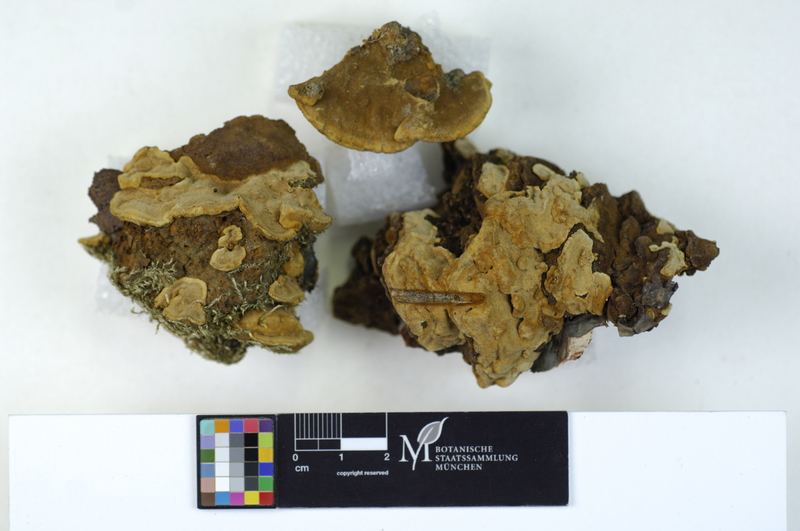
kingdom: Fungi
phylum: Basidiomycota
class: Agaricomycetes
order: Hymenochaetales
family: Hymenochaetaceae
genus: Phylloporia
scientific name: Phylloporia ribis
